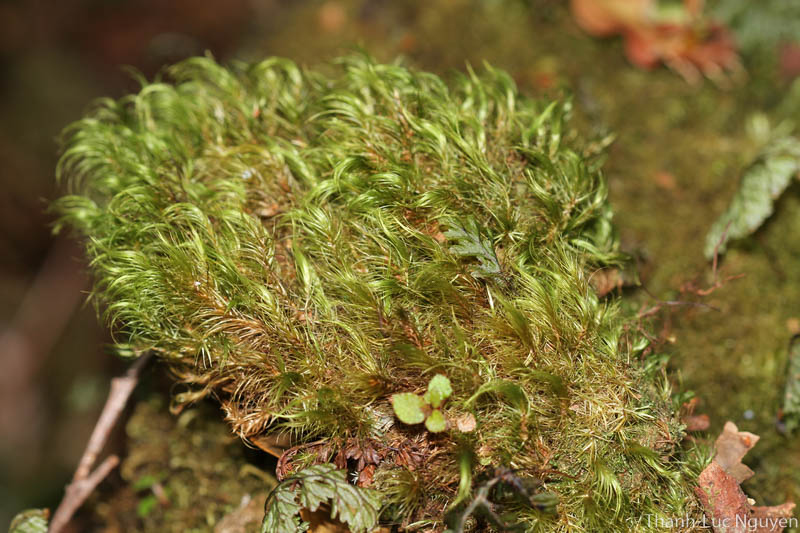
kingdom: Plantae
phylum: Bryophyta
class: Bryopsida
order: Dicranales
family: Dicranaceae
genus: Dicranoloma
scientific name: Dicranoloma
